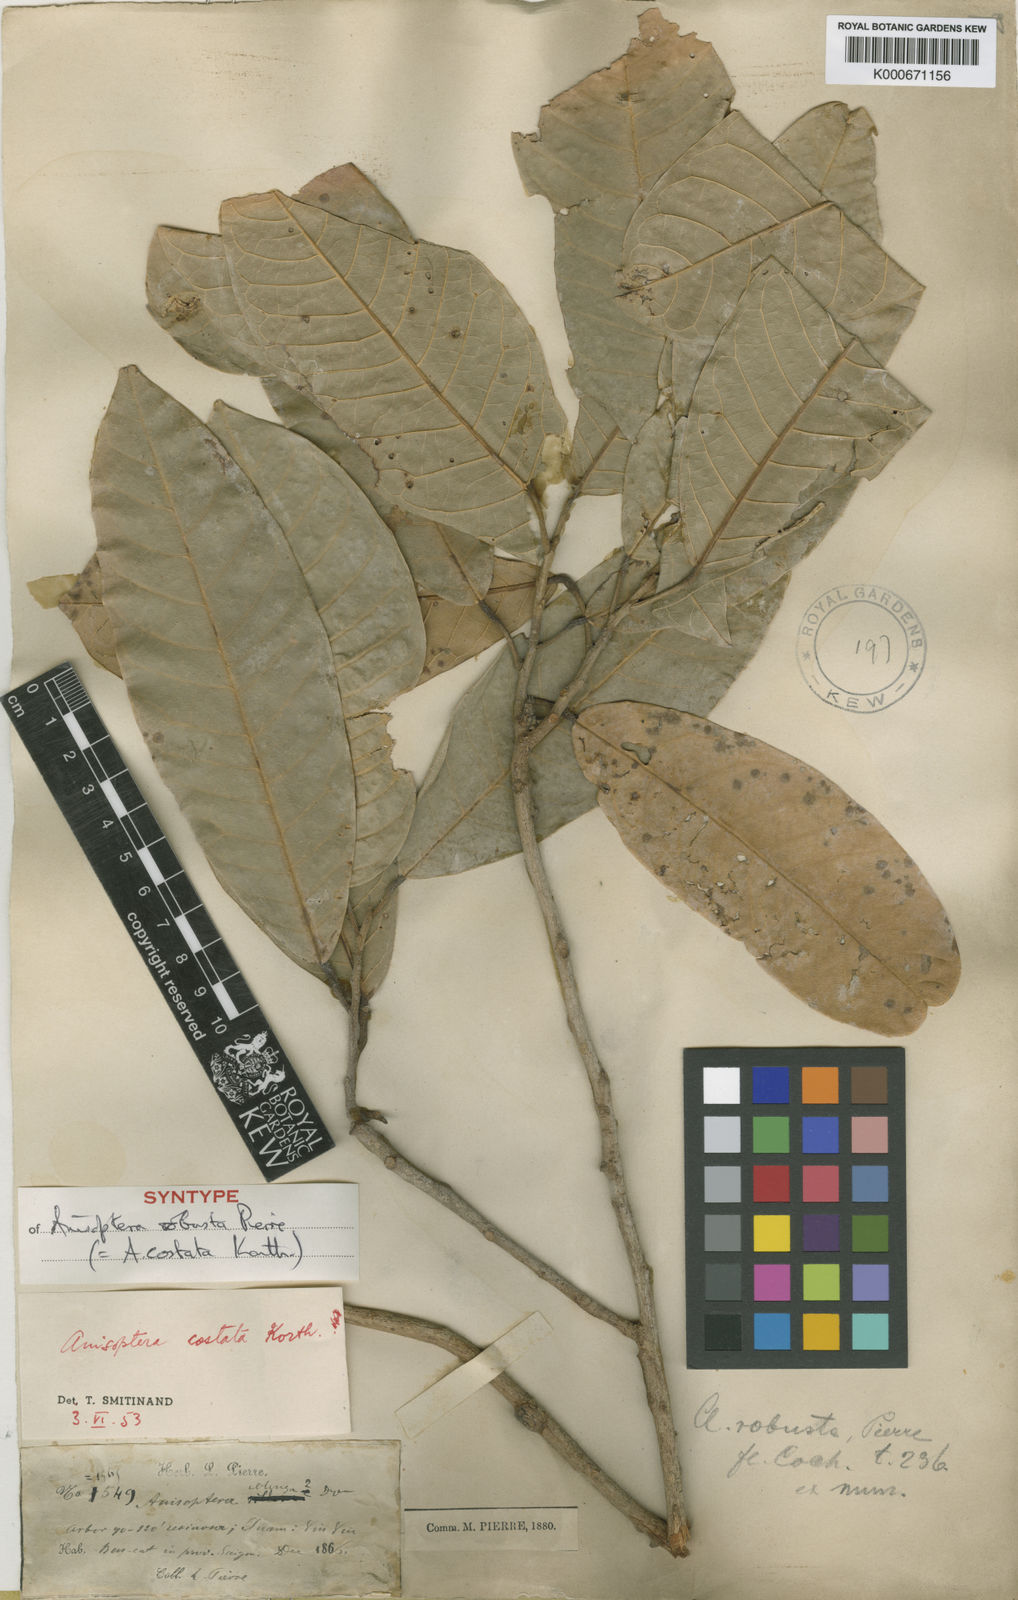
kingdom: Plantae
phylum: Tracheophyta
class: Magnoliopsida
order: Malvales
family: Dipterocarpaceae
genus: Anisoptera
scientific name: Anisoptera costata
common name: Mersawa
